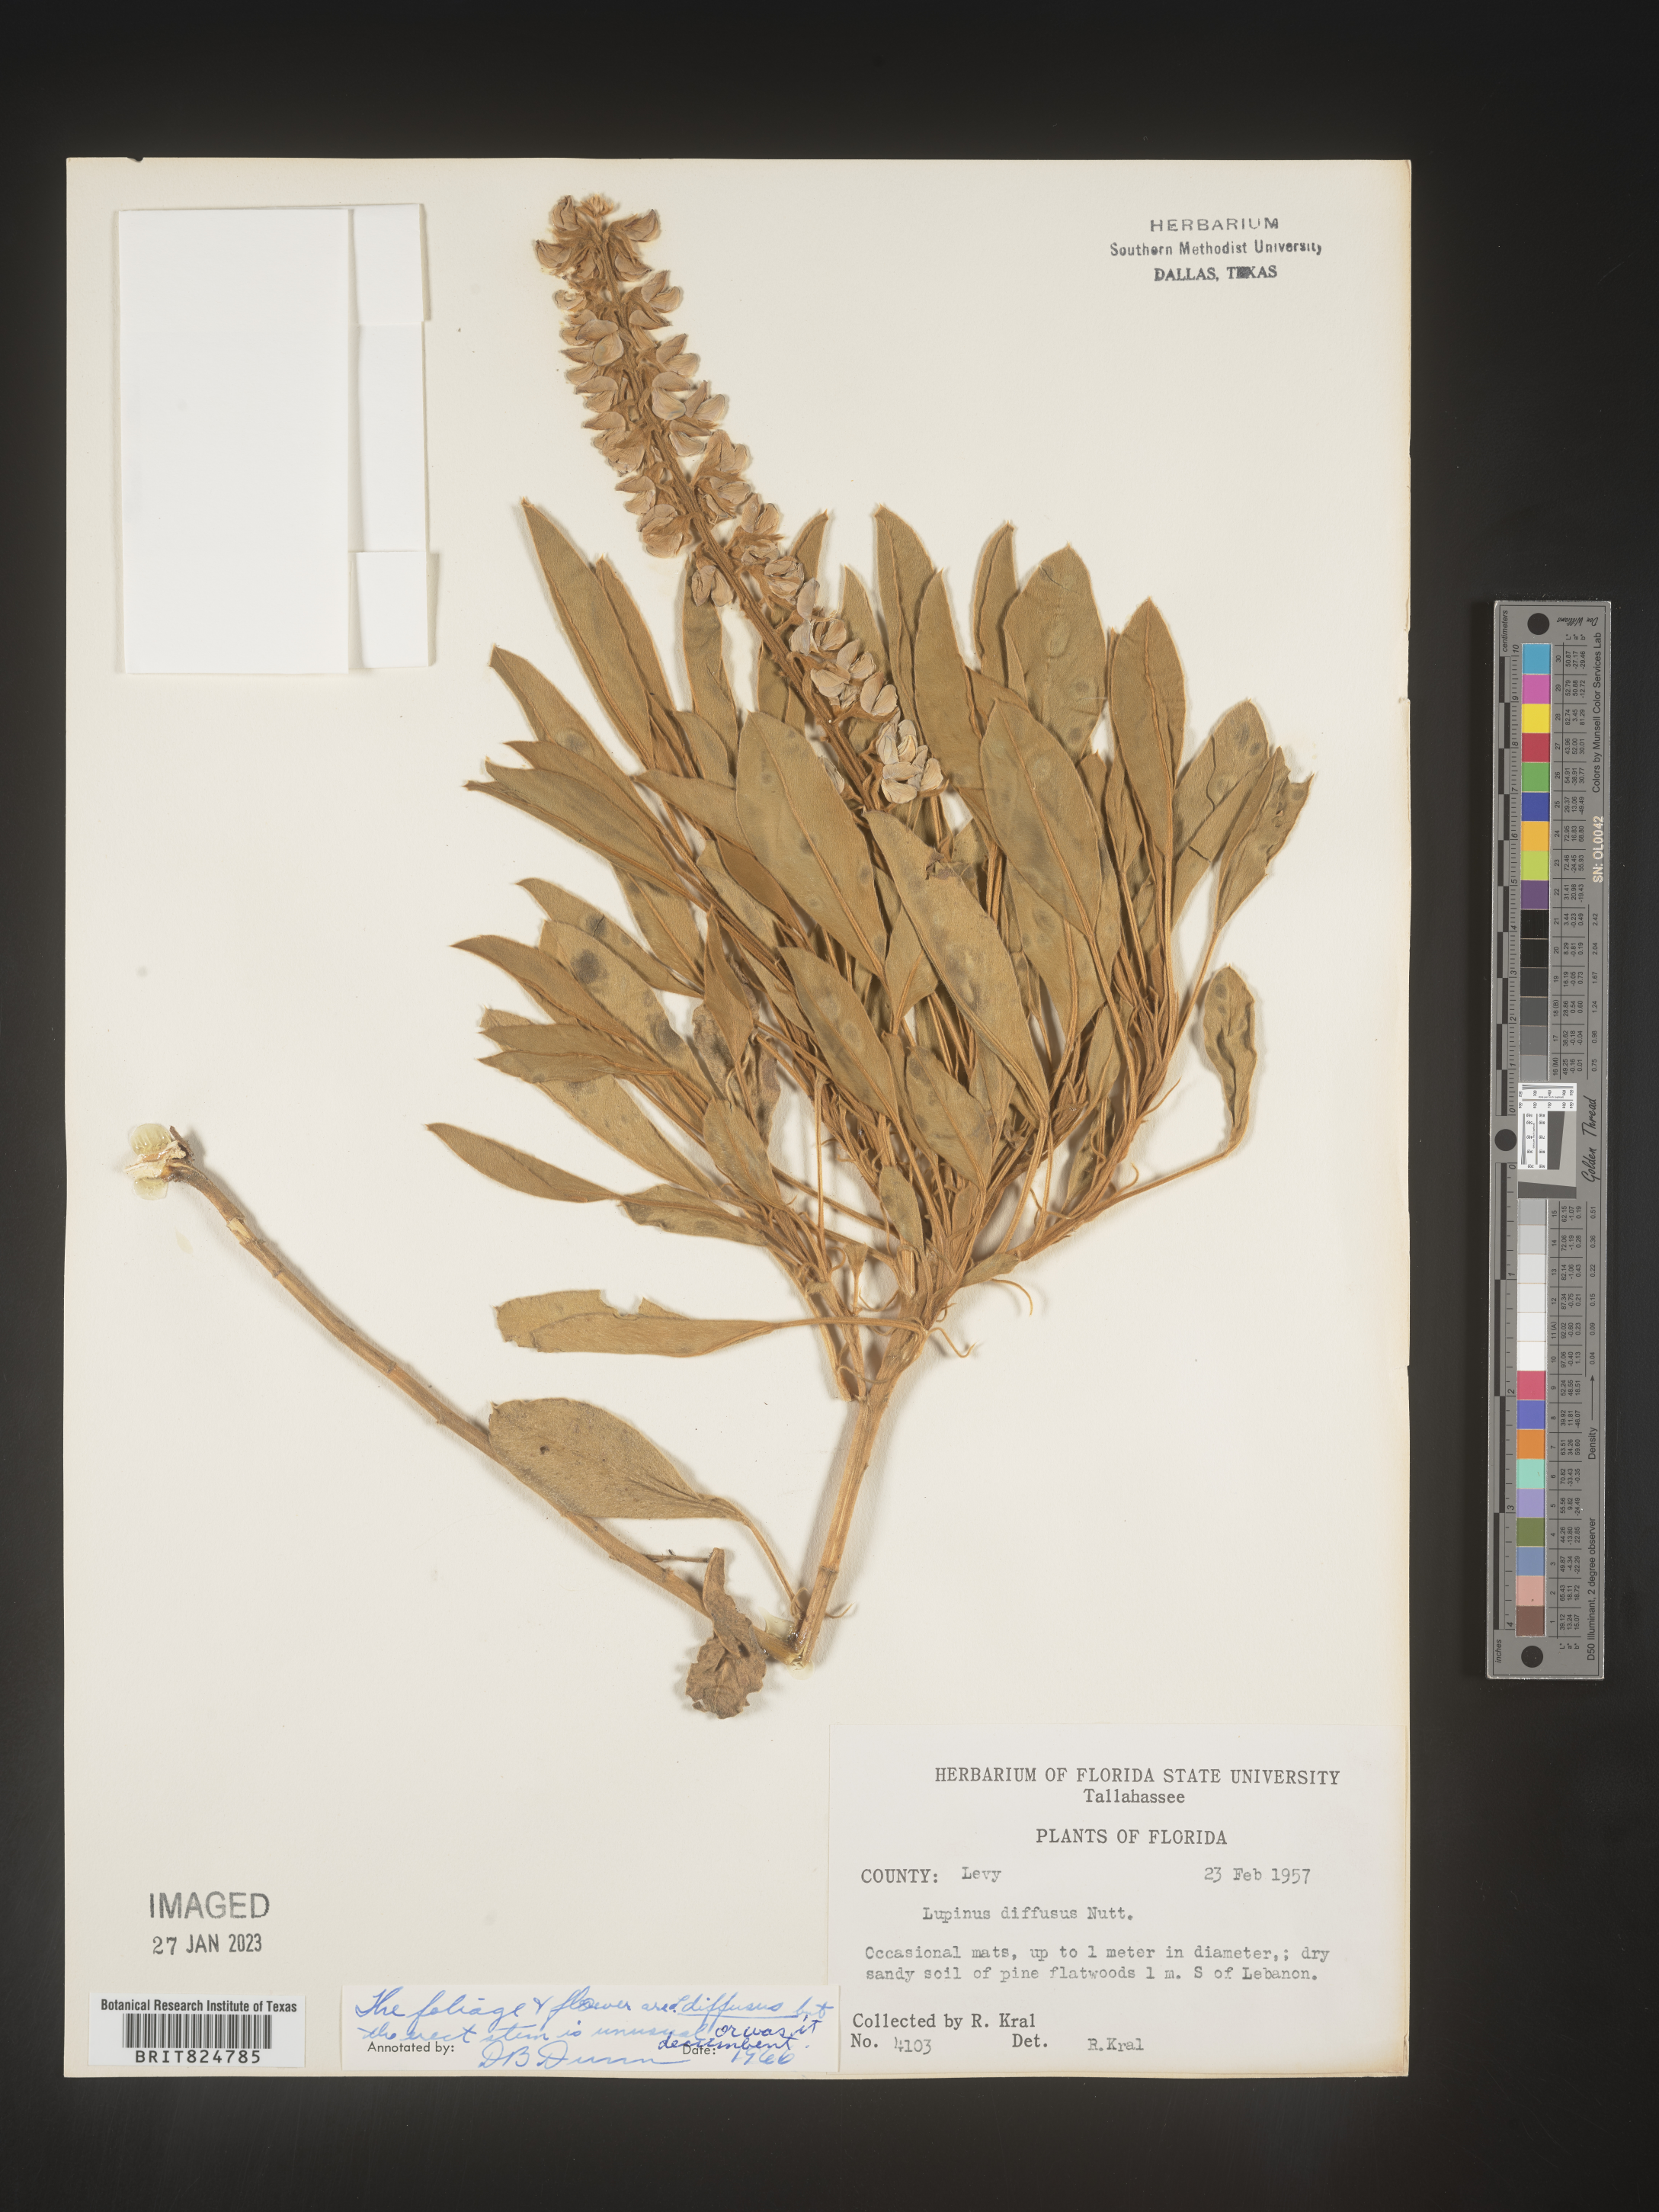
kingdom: Plantae
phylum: Tracheophyta
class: Magnoliopsida
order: Fabales
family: Fabaceae
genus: Lupinus
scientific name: Lupinus diffusus
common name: Oak ridge lupine
